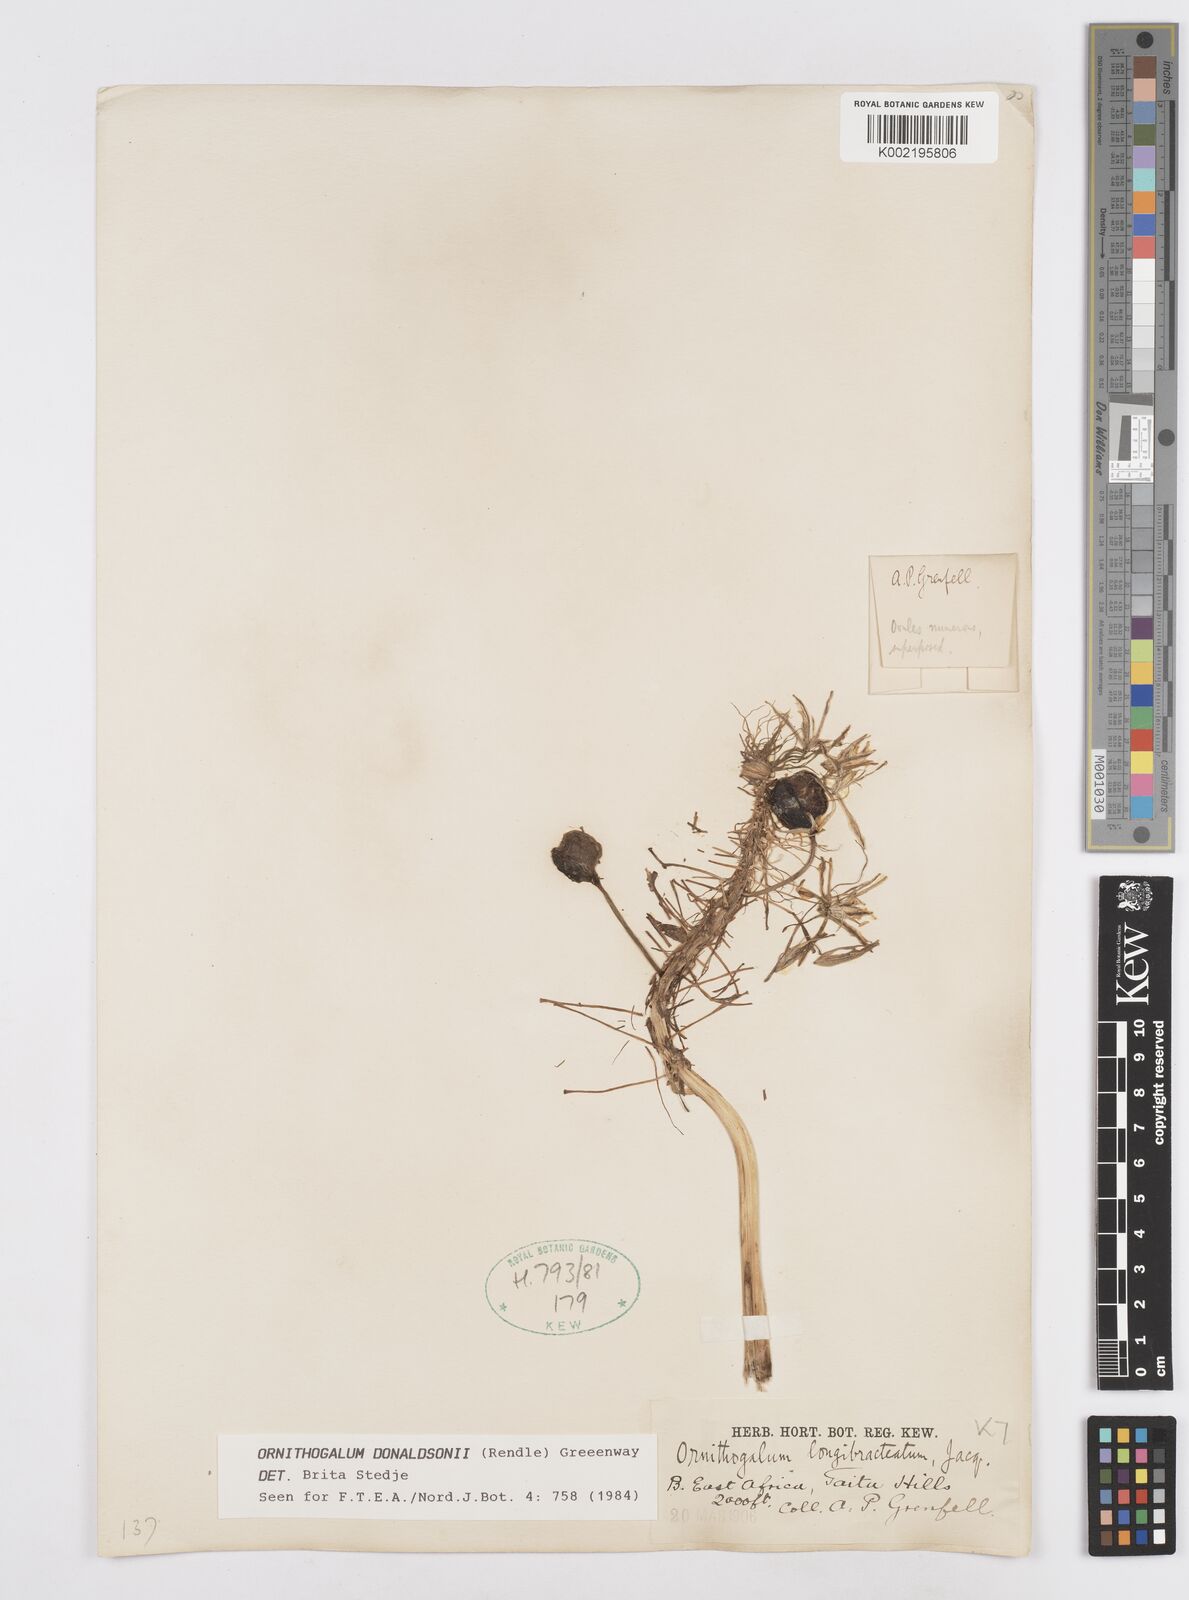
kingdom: Plantae
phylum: Tracheophyta
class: Liliopsida
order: Asparagales
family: Asparagaceae
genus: Albuca
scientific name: Albuca donaldsonii
